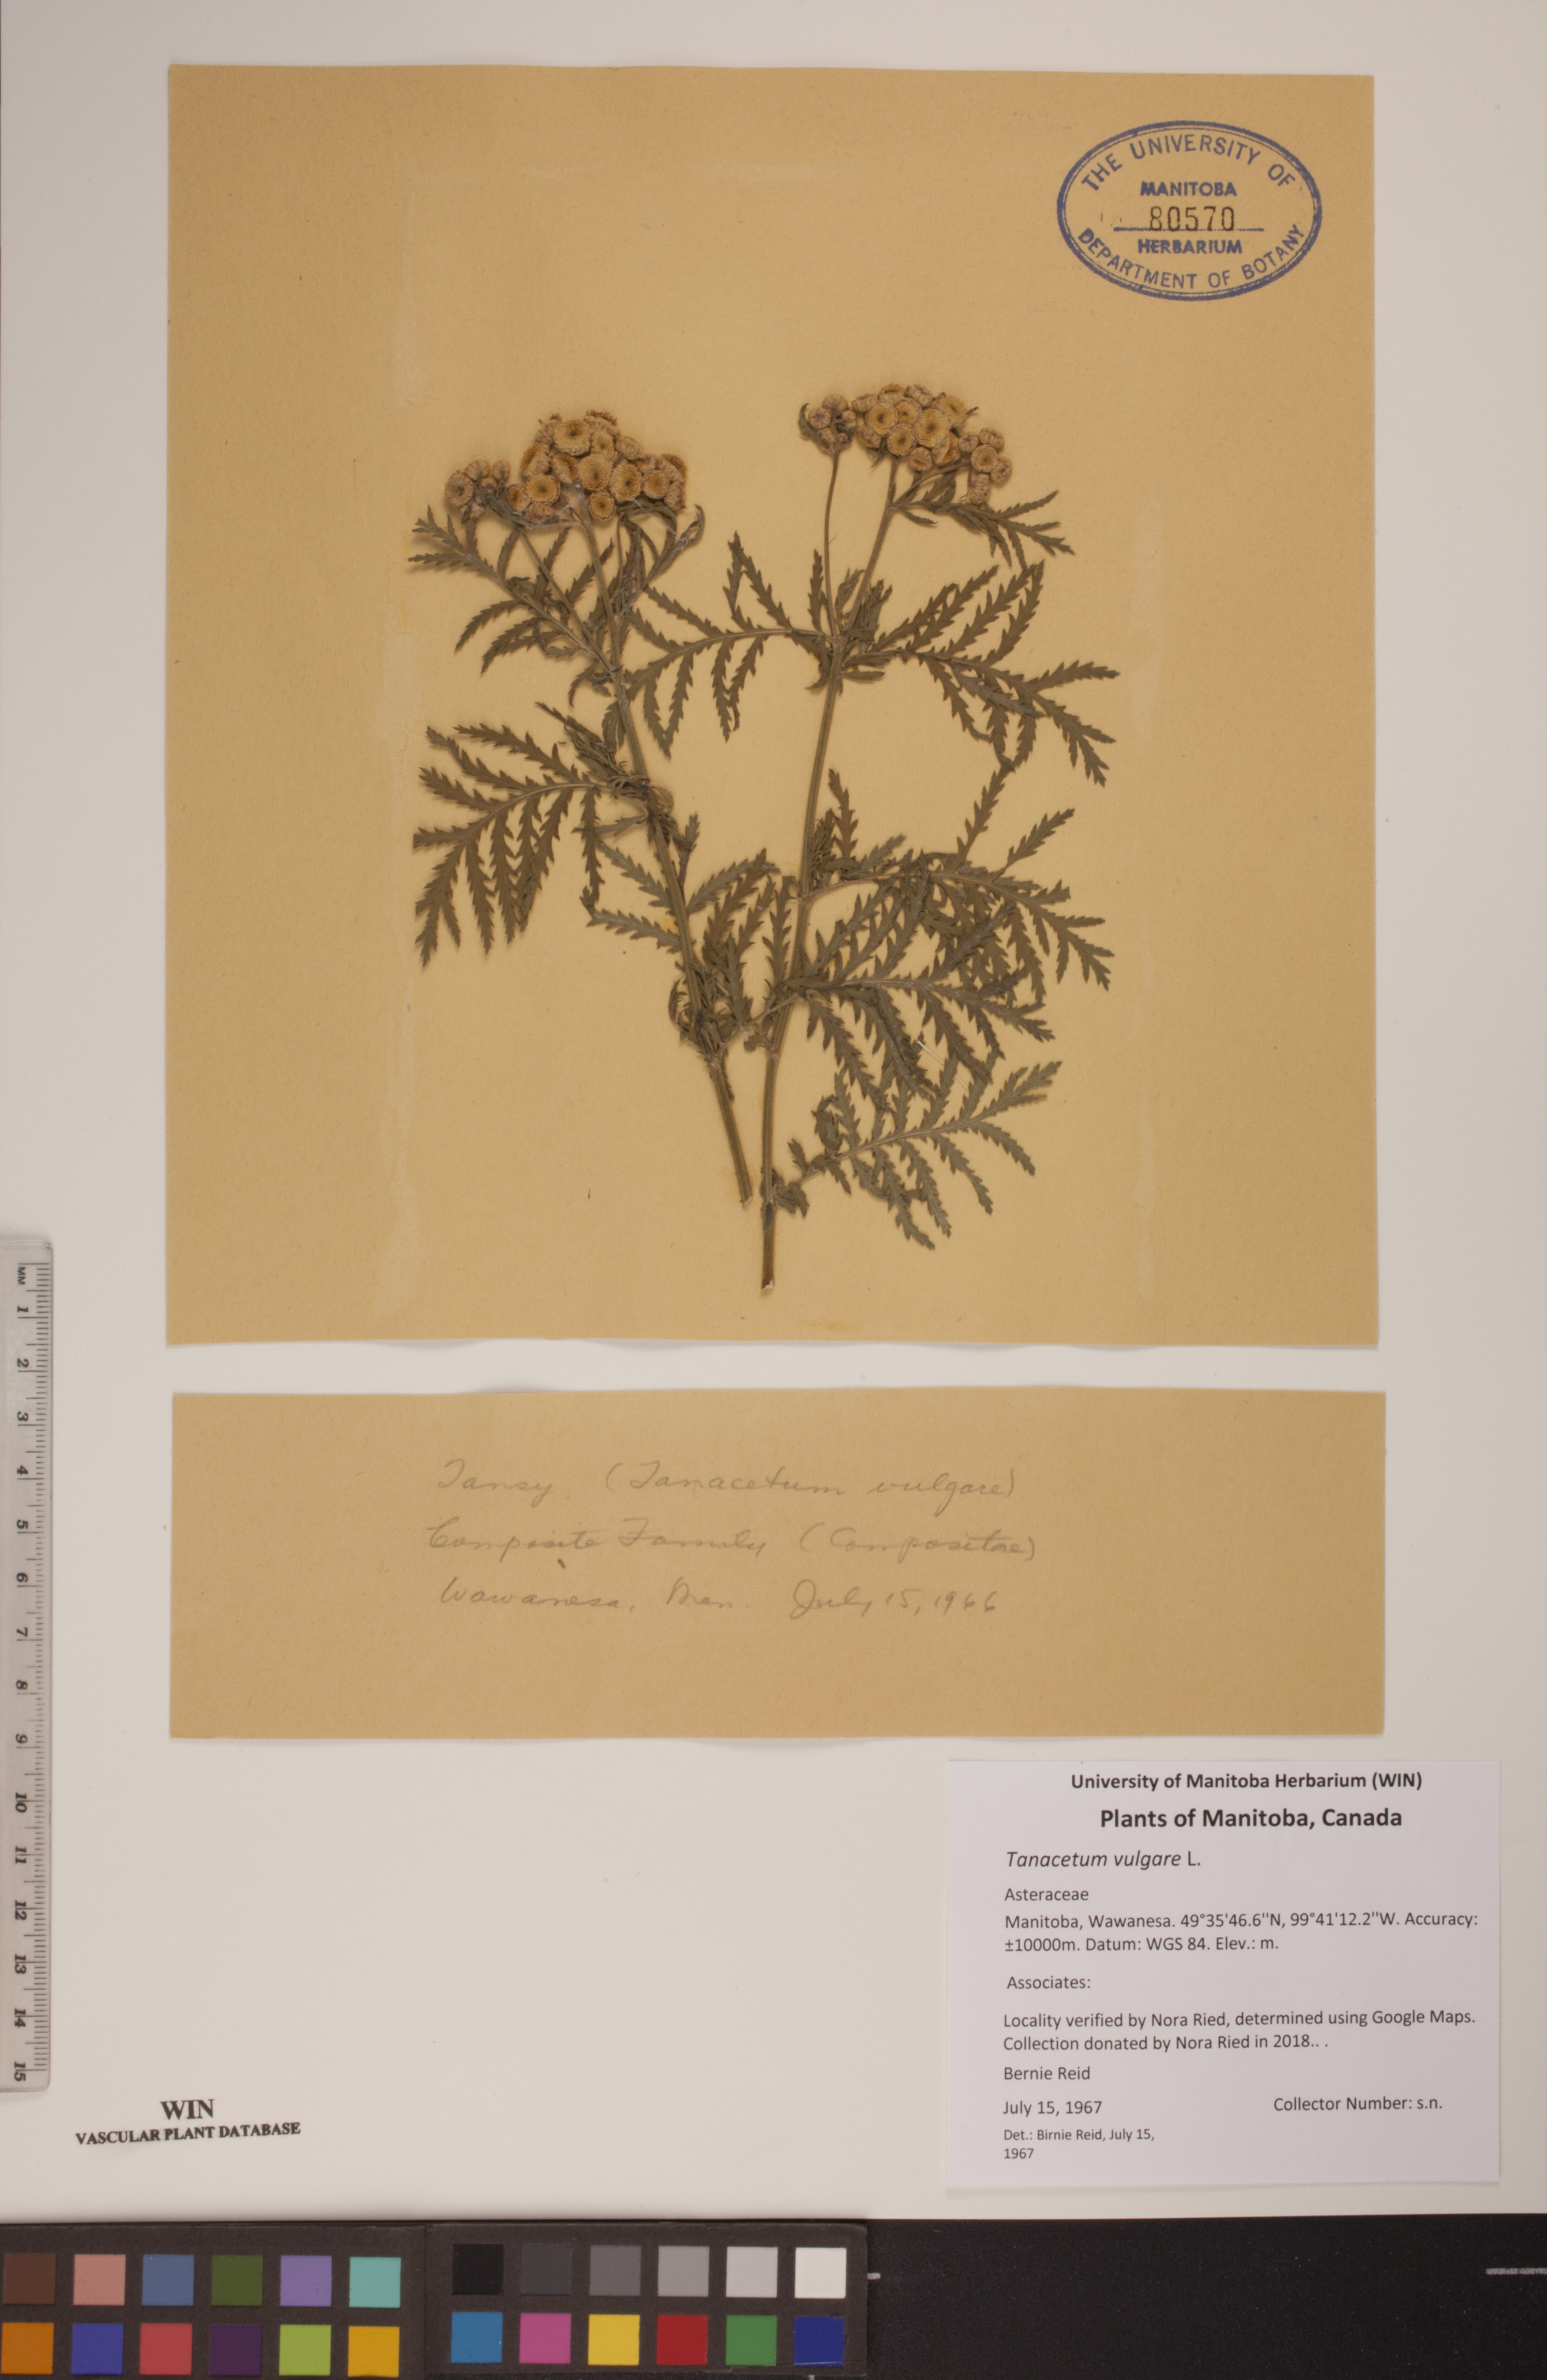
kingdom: Plantae
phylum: Tracheophyta
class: Magnoliopsida
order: Asterales
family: Asteraceae
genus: Tanacetum
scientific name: Tanacetum vulgare
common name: Common tansy
